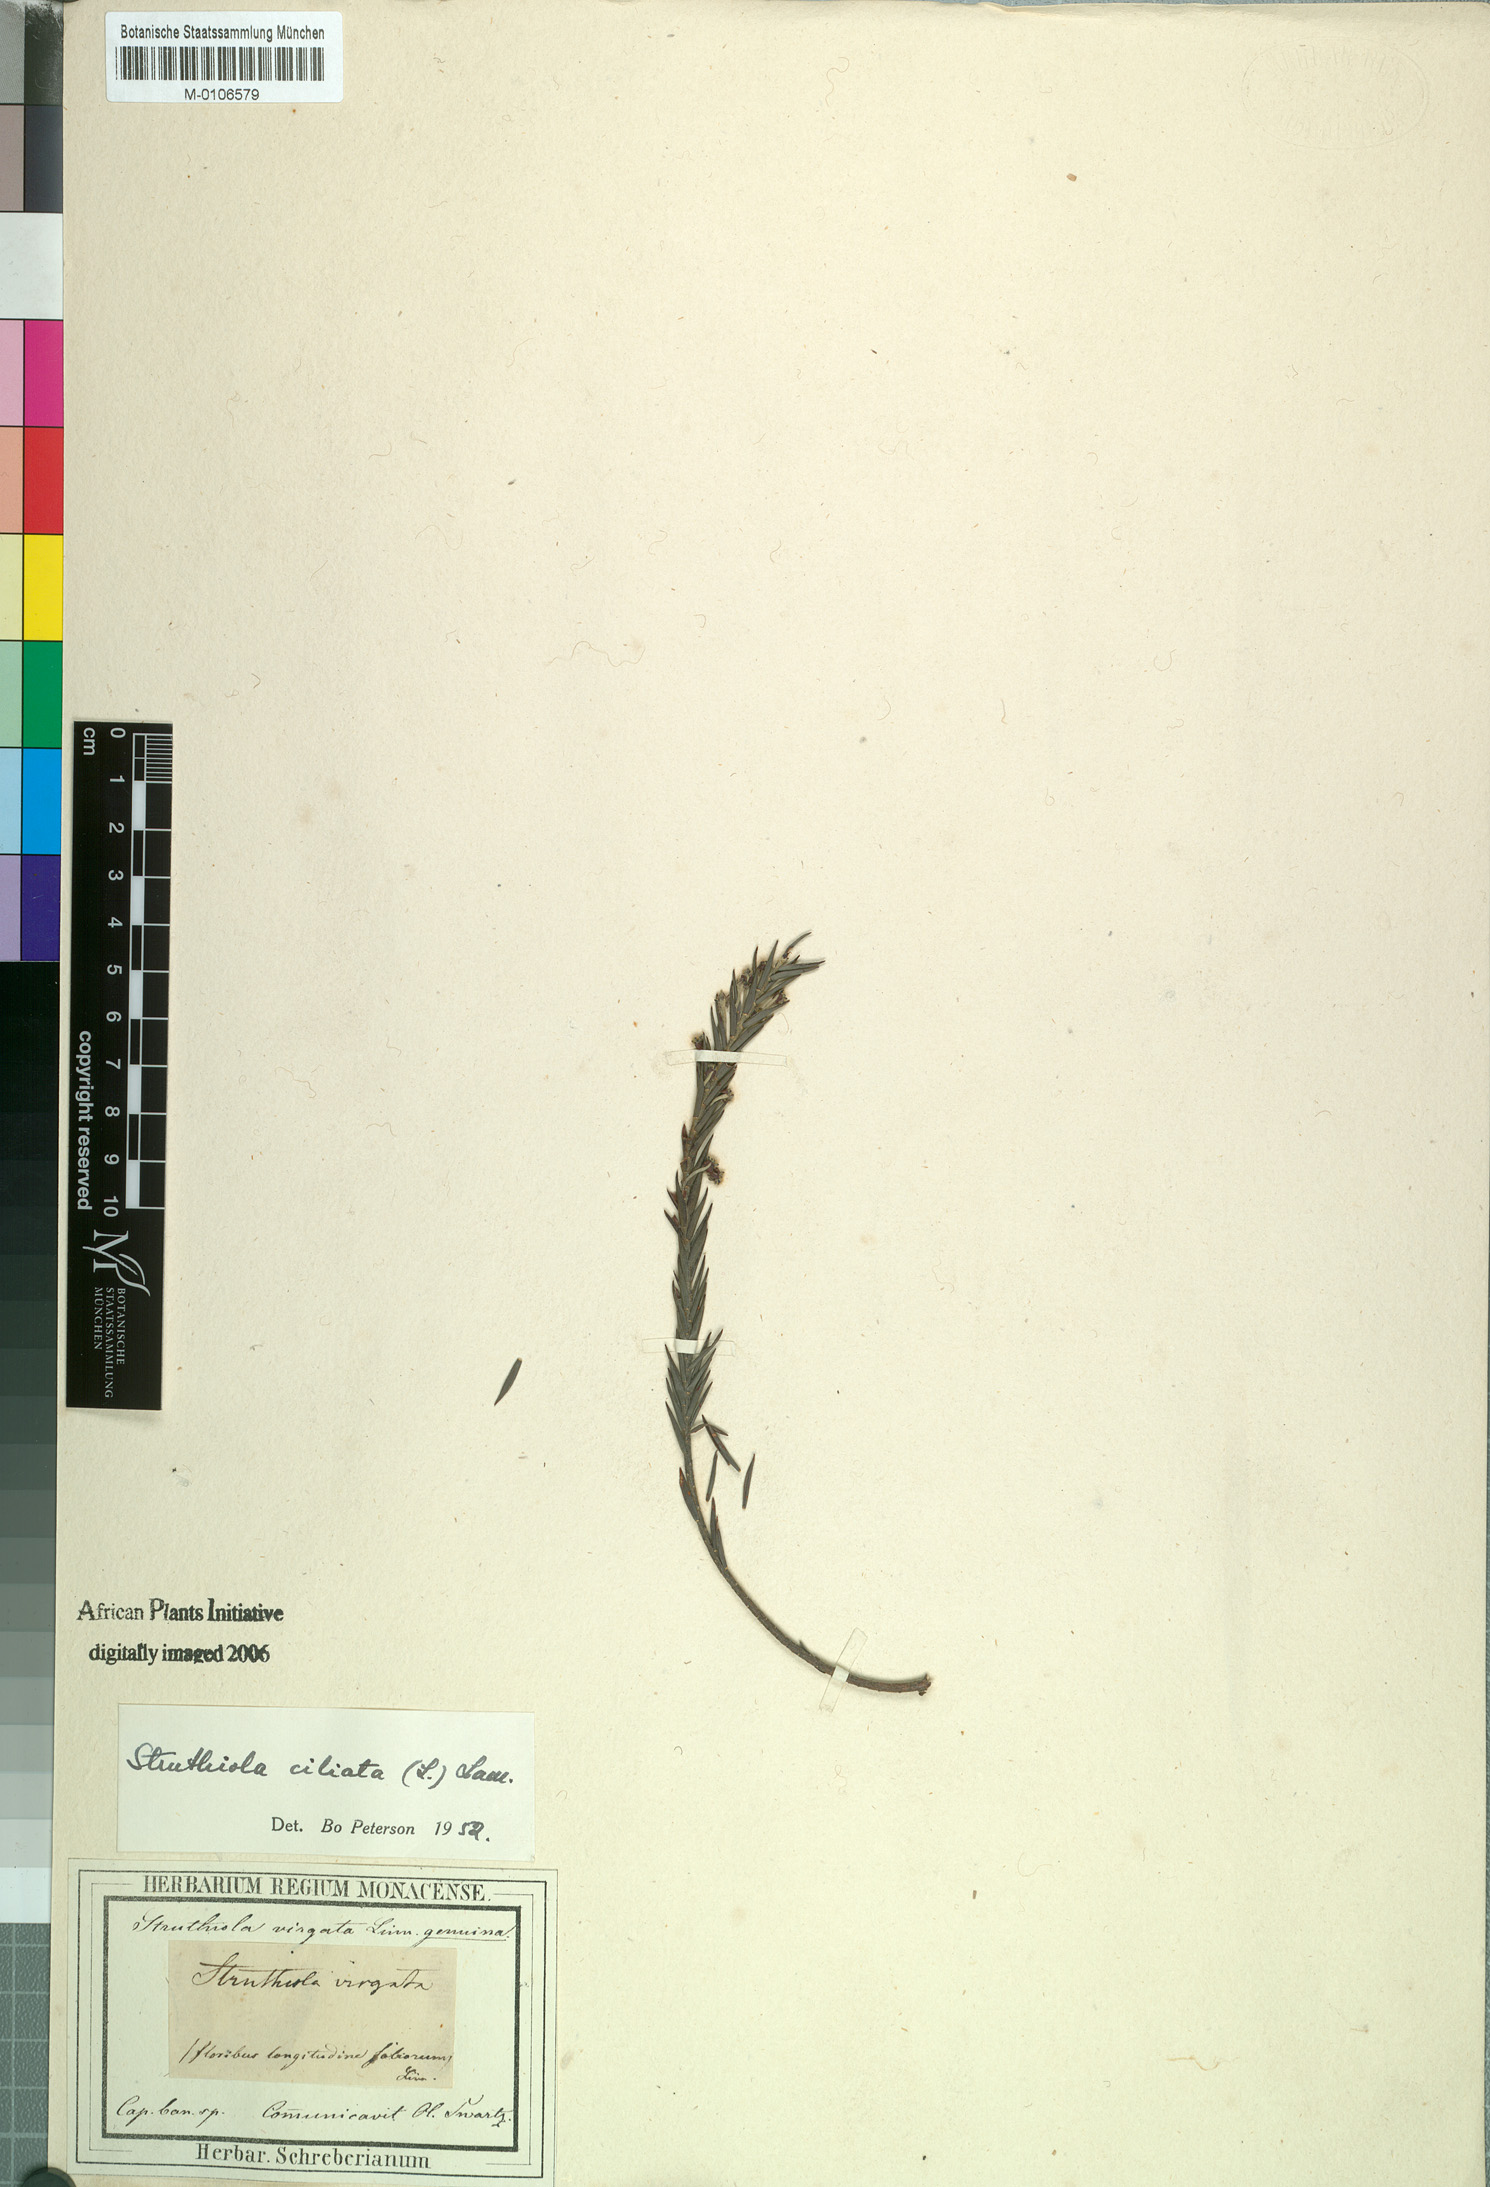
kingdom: Plantae
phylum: Tracheophyta
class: Magnoliopsida
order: Malvales
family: Thymelaeaceae
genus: Struthiola
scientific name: Struthiola ciliata
